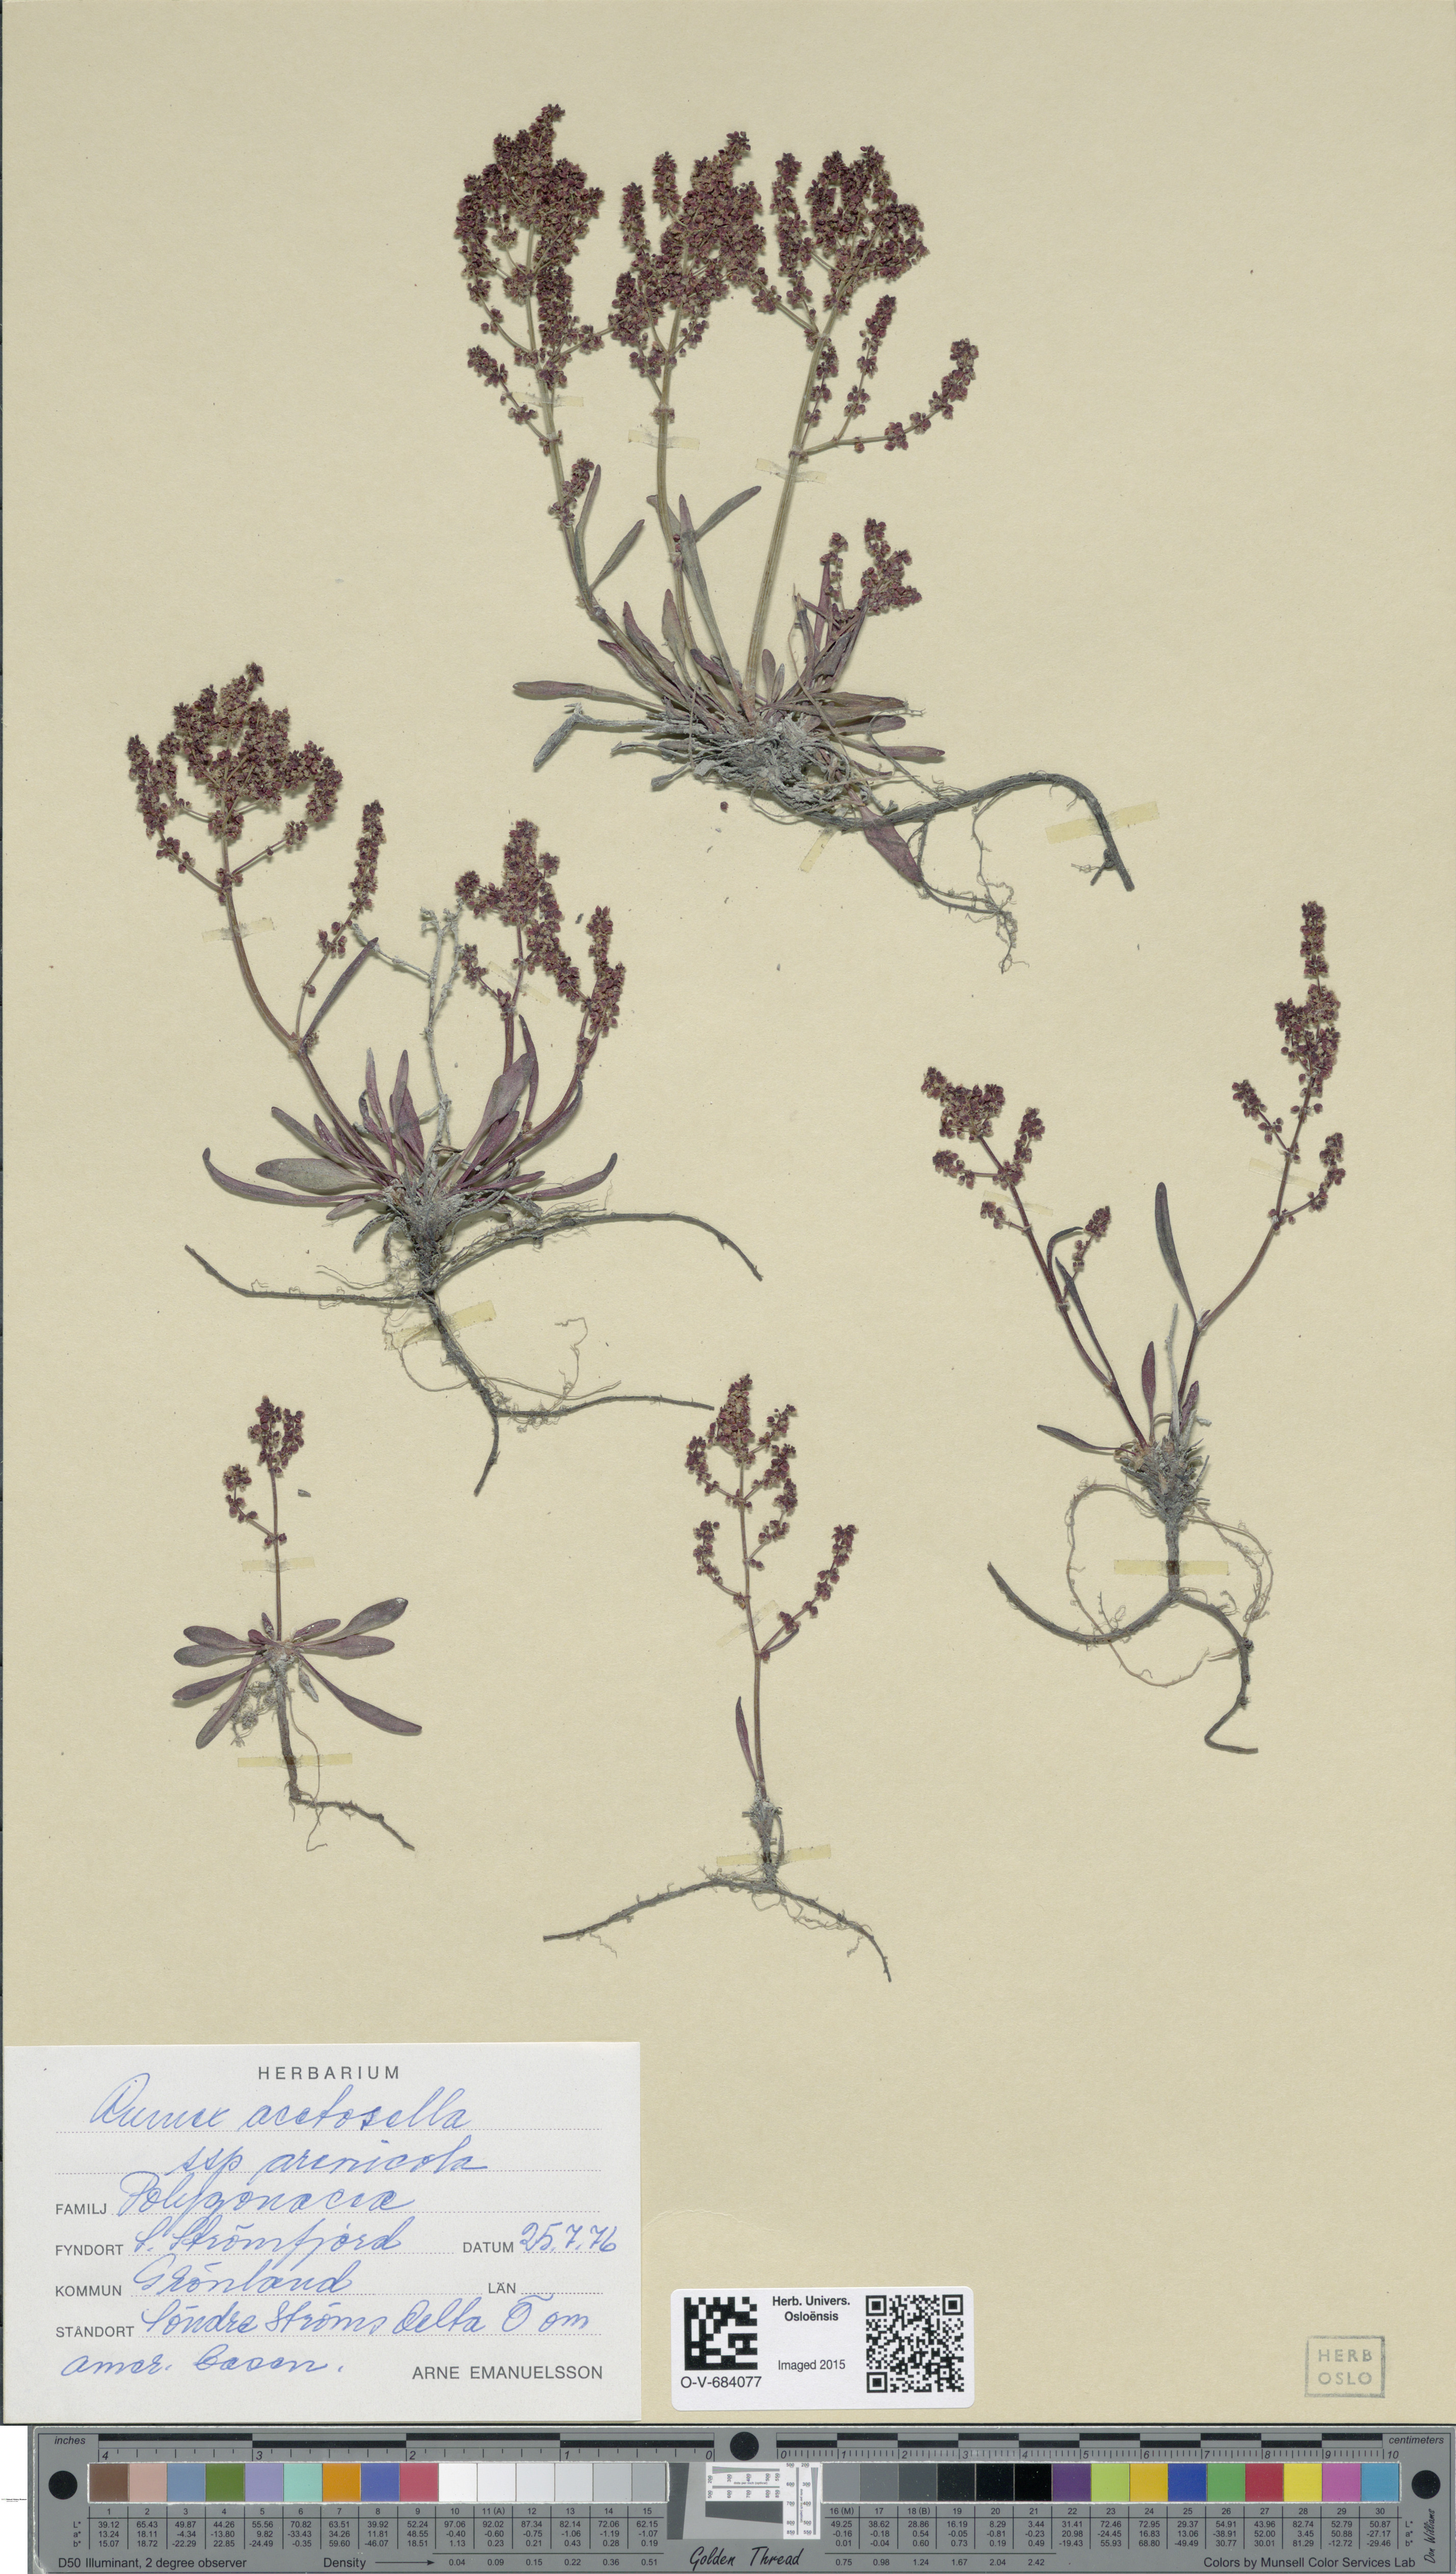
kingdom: Plantae
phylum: Tracheophyta
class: Magnoliopsida
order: Caryophyllales
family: Polygonaceae
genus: Rumex
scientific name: Rumex acetosella
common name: Common sheep sorrel
